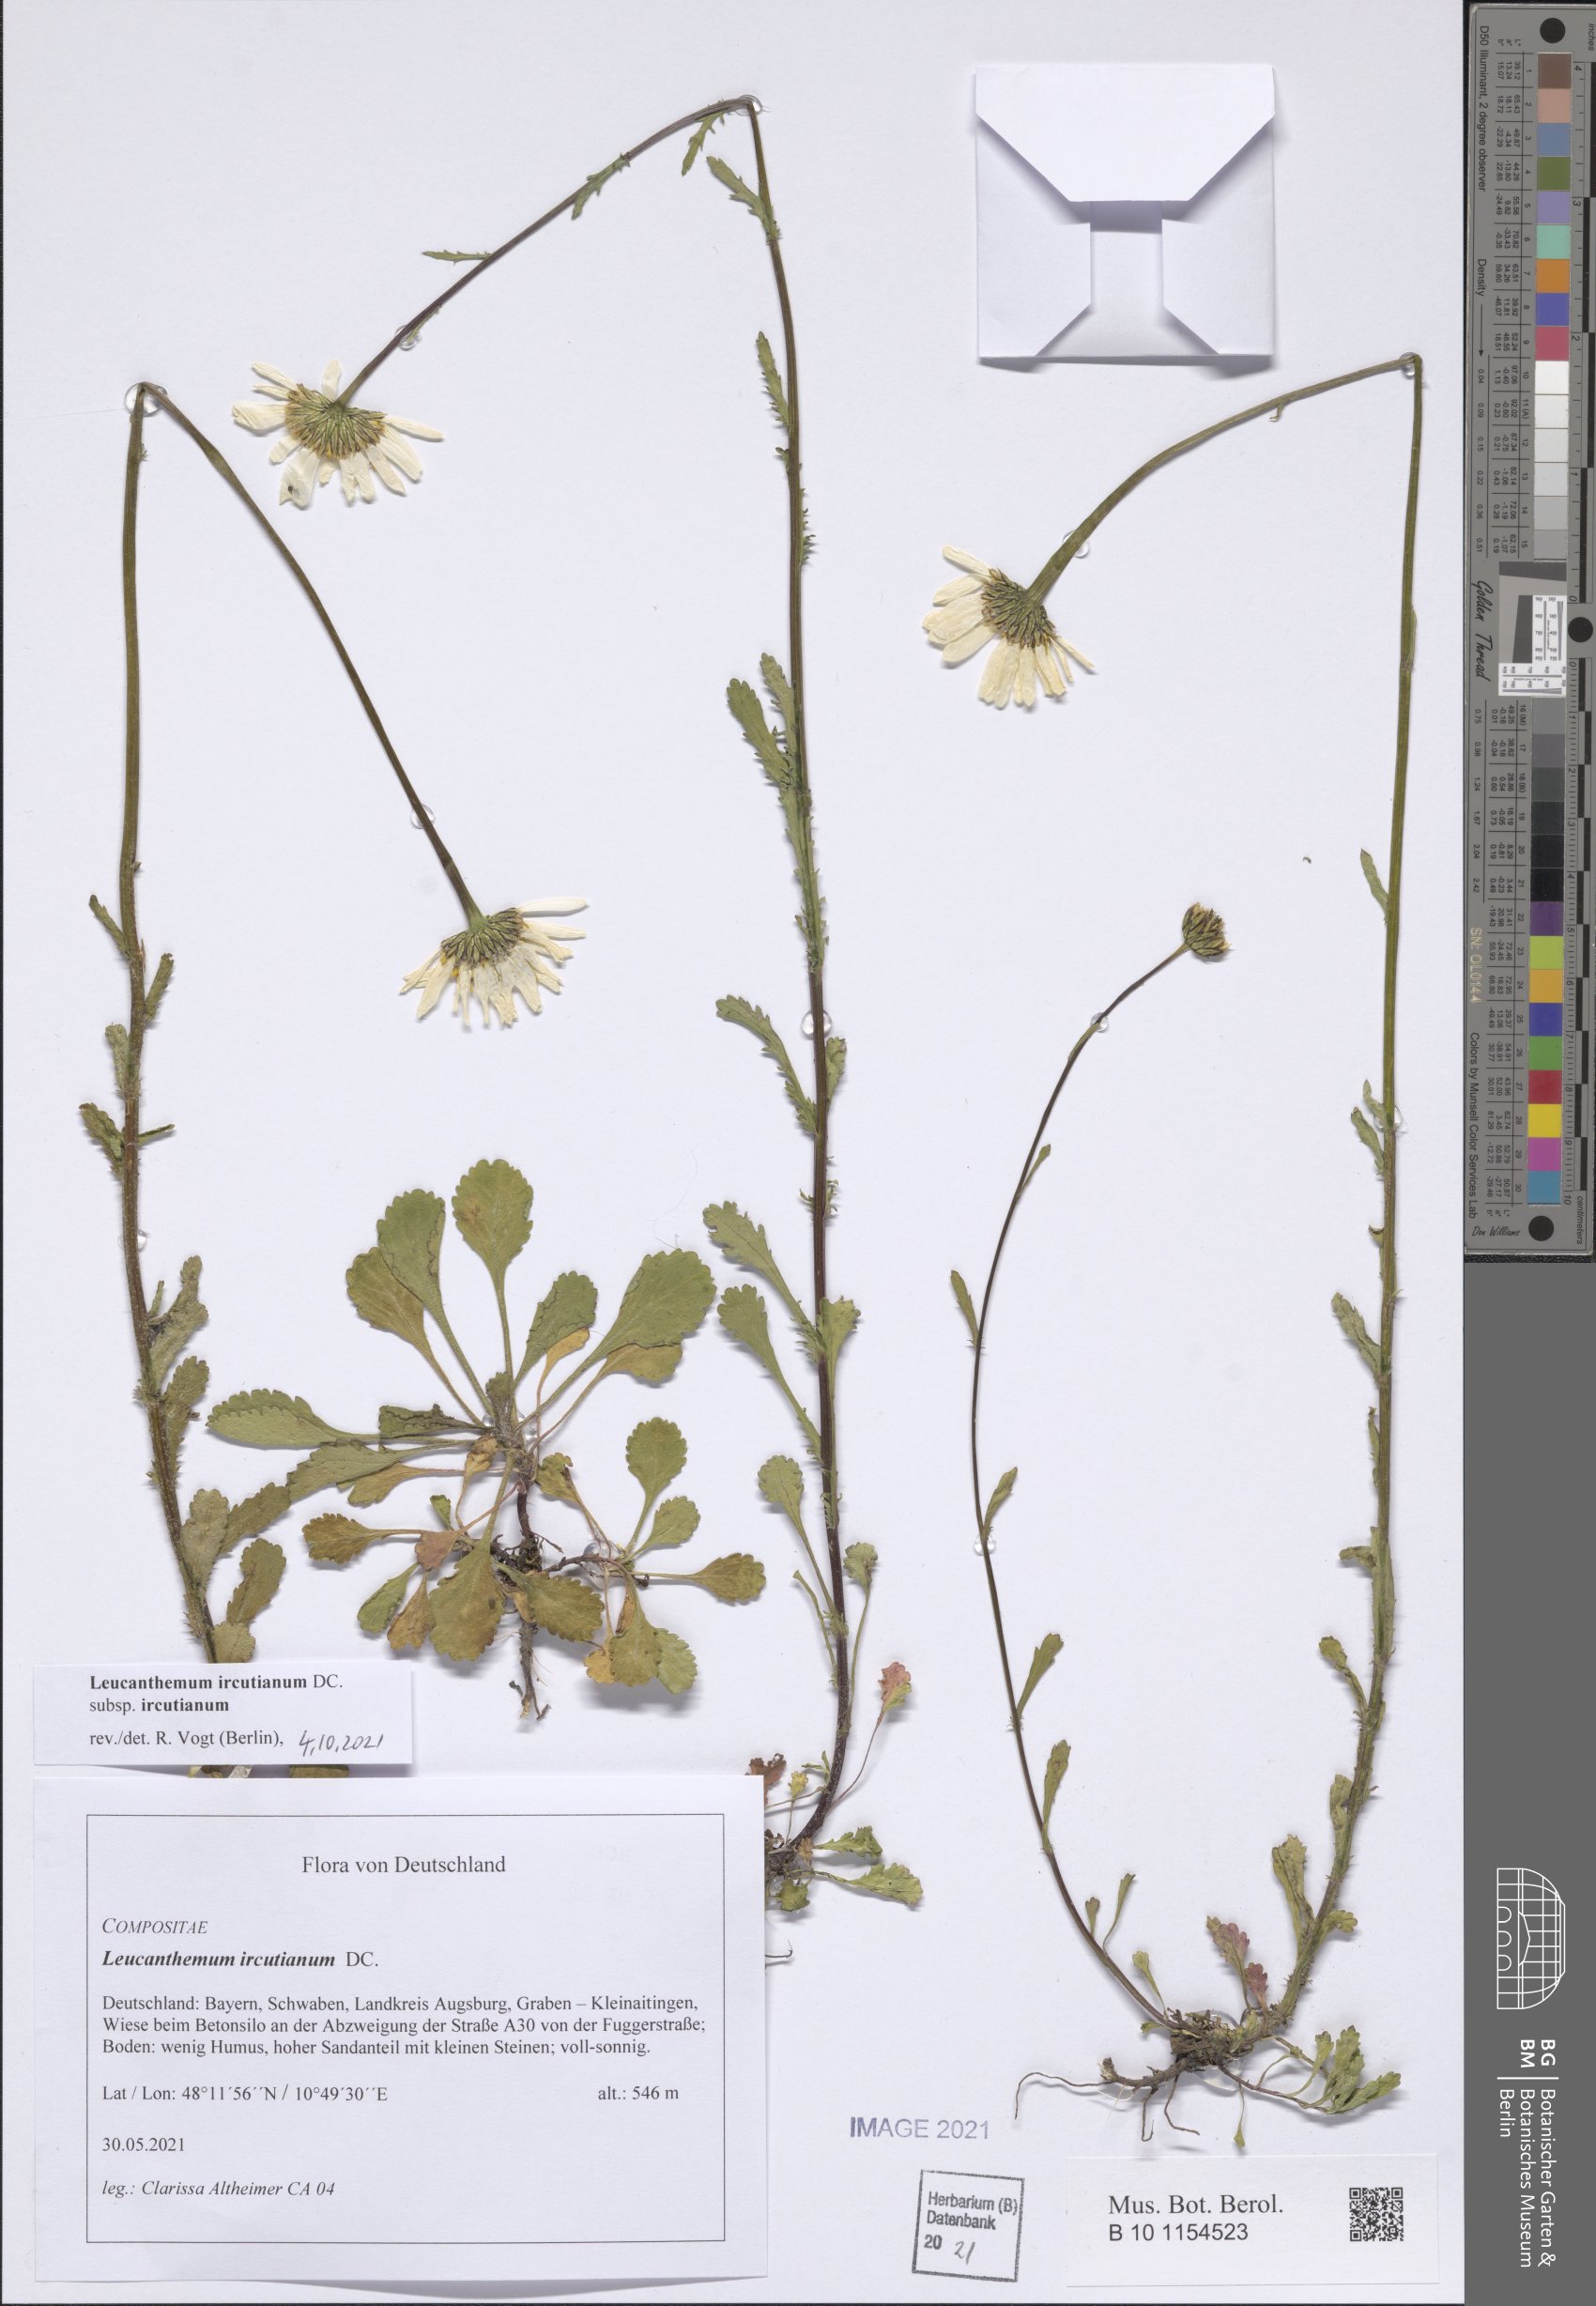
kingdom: Plantae
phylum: Tracheophyta
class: Magnoliopsida
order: Asterales
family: Asteraceae
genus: Leucanthemum
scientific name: Leucanthemum ircutianum
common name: Daisy
